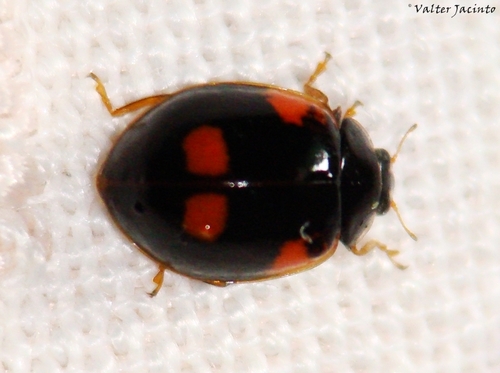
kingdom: Animalia
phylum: Arthropoda
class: Insecta
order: Coleoptera
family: Coccinellidae
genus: Adalia
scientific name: Adalia bipunctata
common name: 2-spot ladybird
